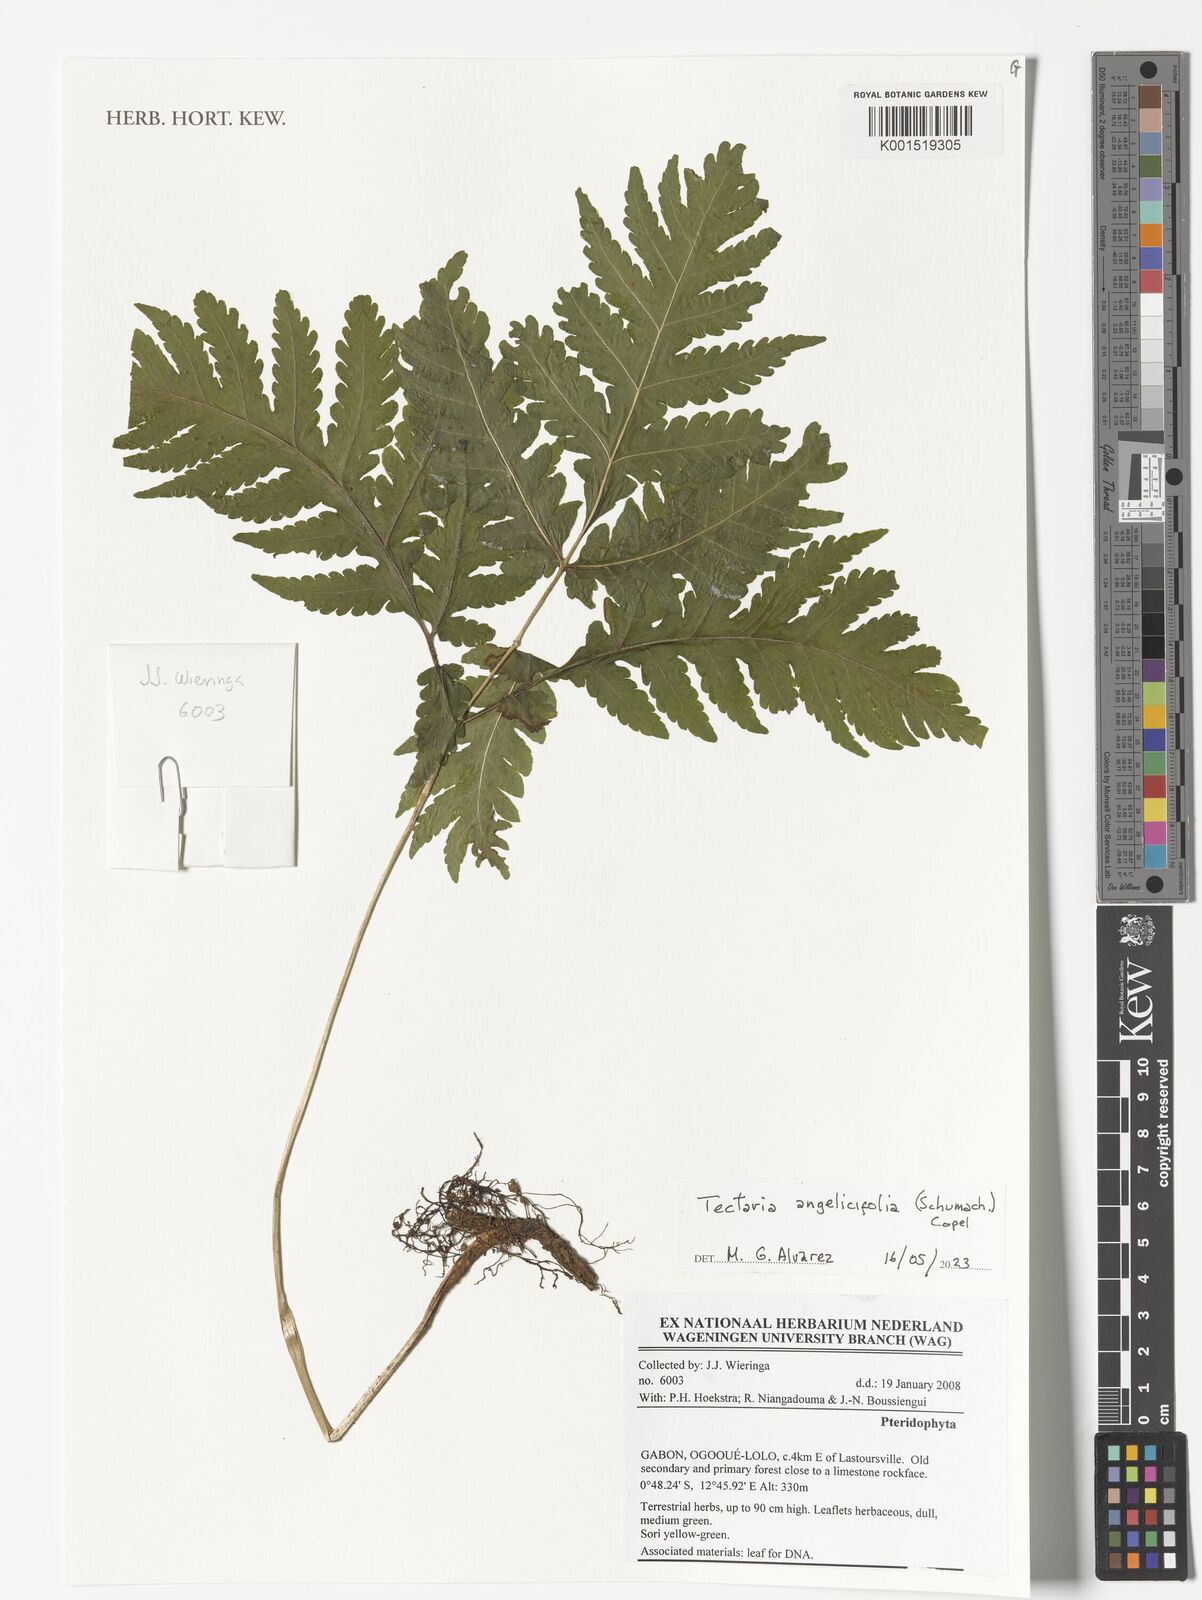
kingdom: Plantae
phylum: Tracheophyta
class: Polypodiopsida
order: Polypodiales
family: Tectariaceae
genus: Tectaria
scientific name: Tectaria angelicifolia
